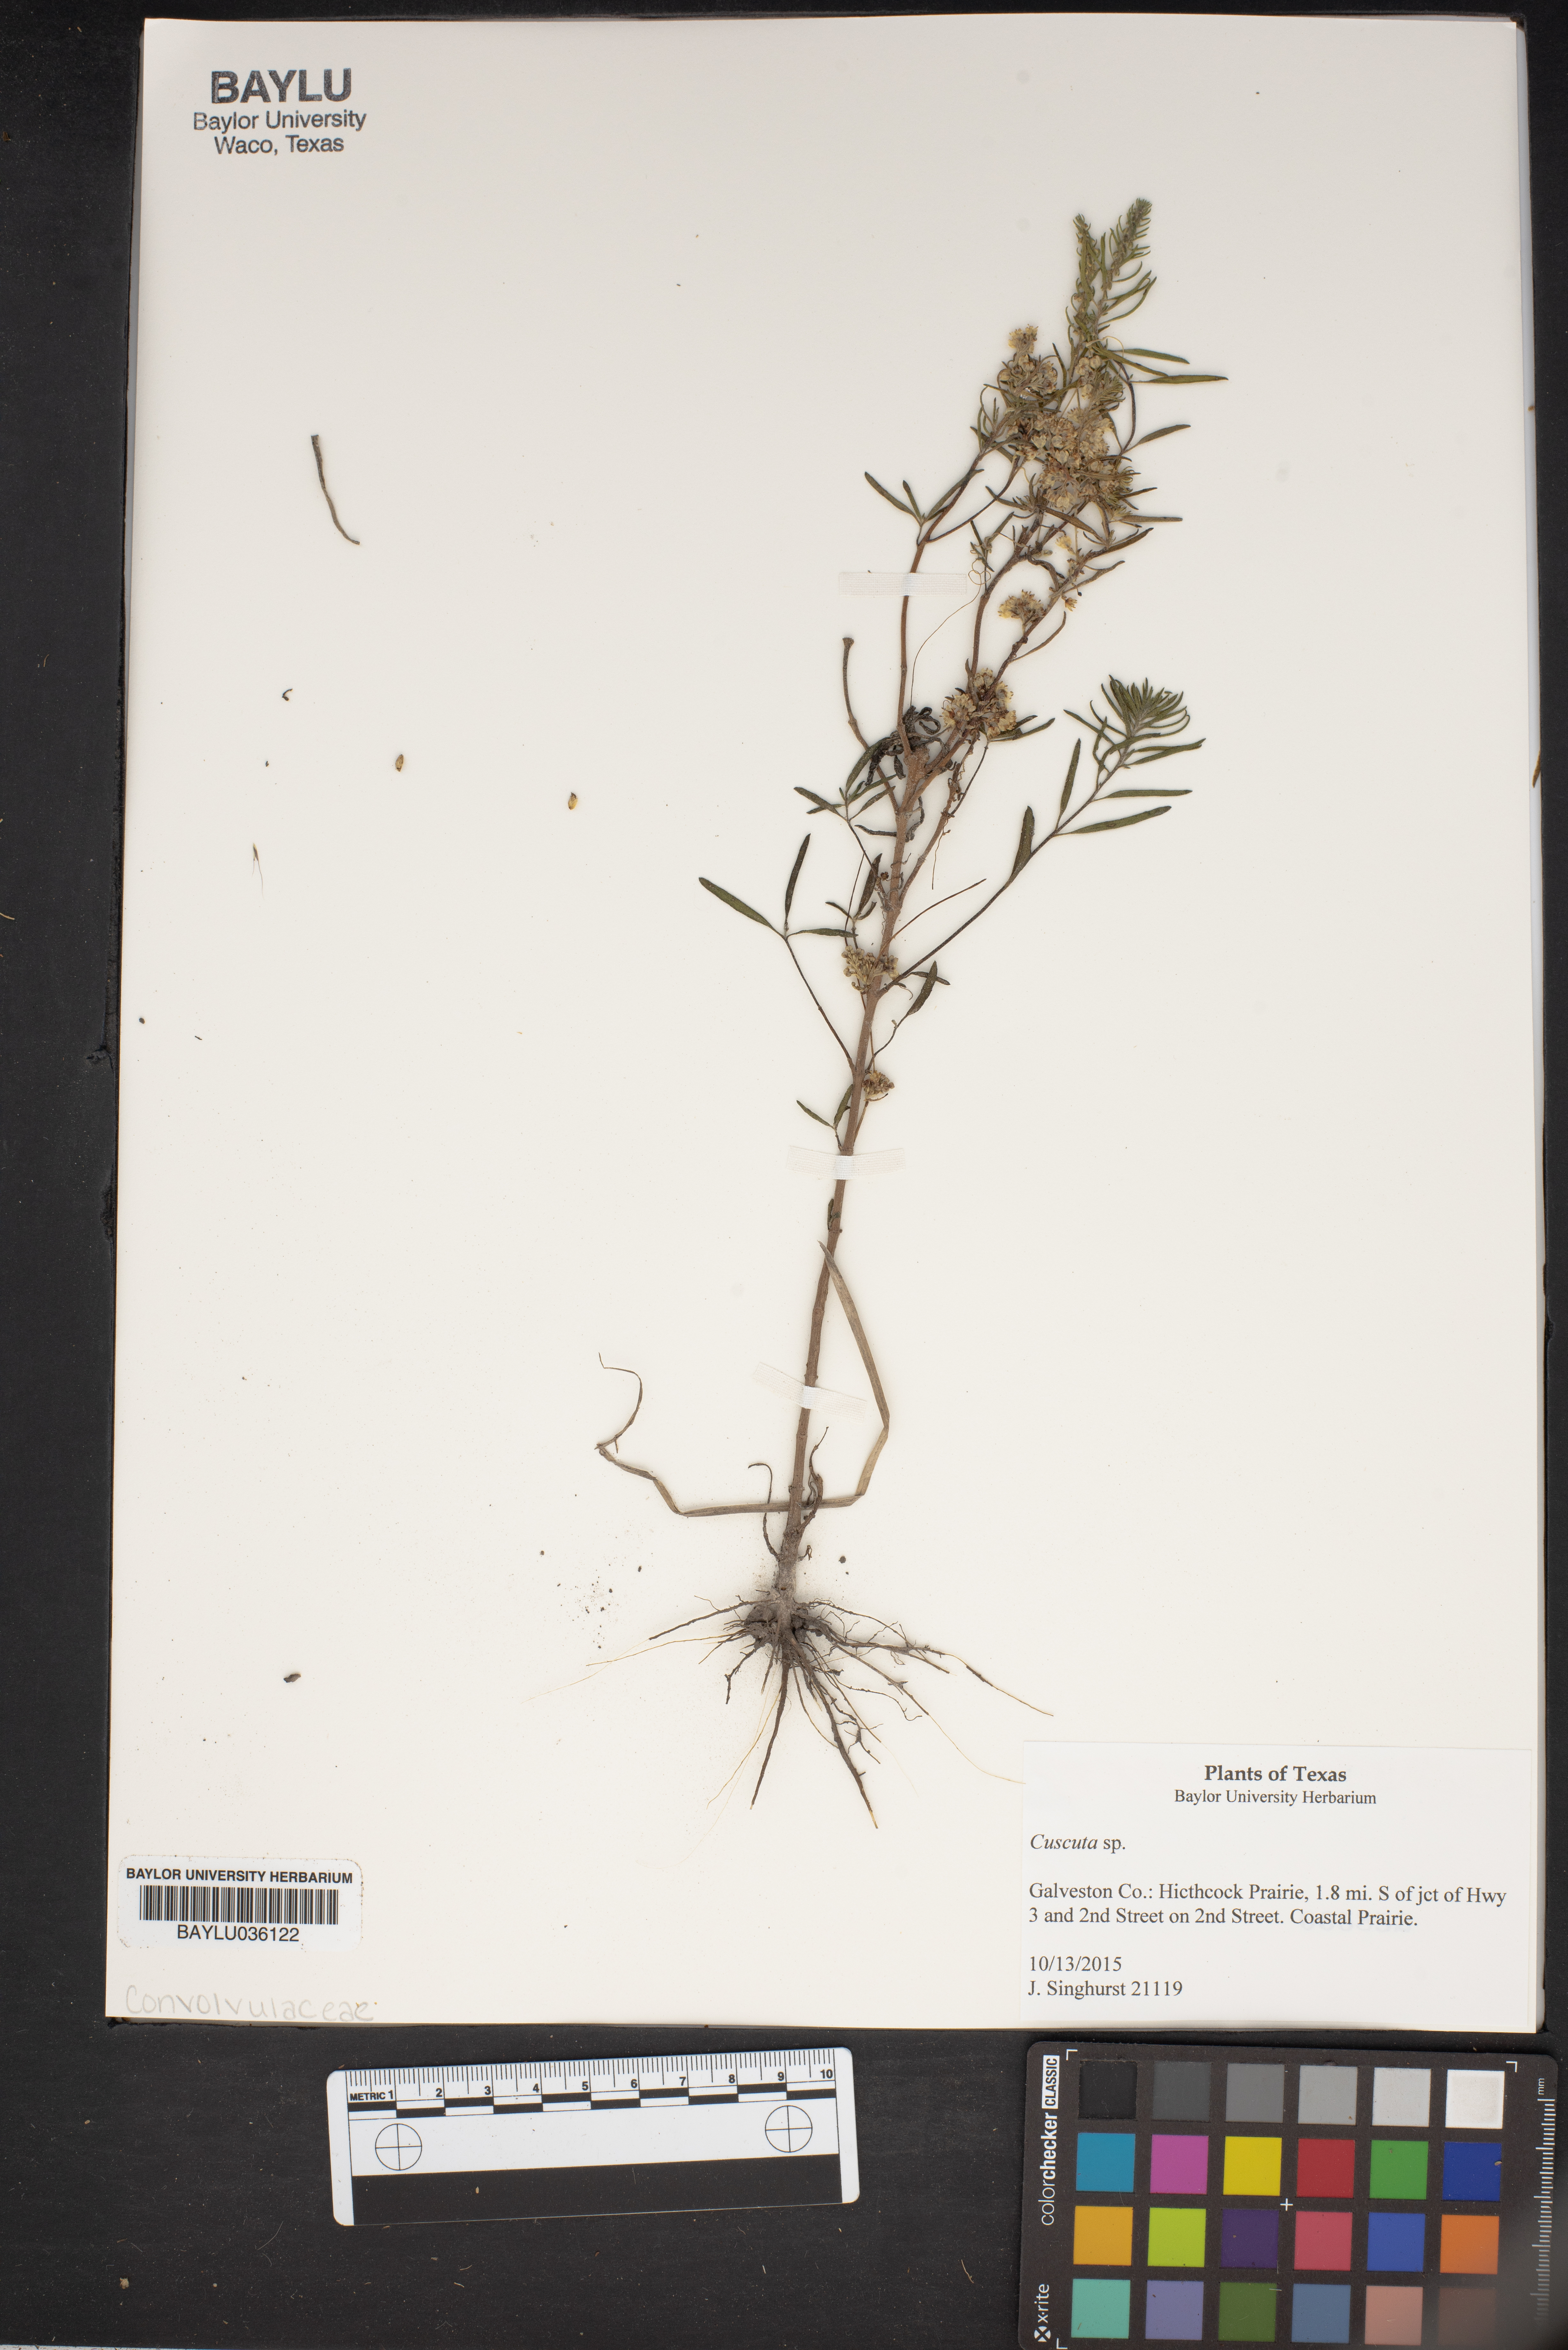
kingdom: Plantae
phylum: Tracheophyta
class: Magnoliopsida
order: Solanales
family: Convolvulaceae
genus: Cuscuta
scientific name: Cuscuta
